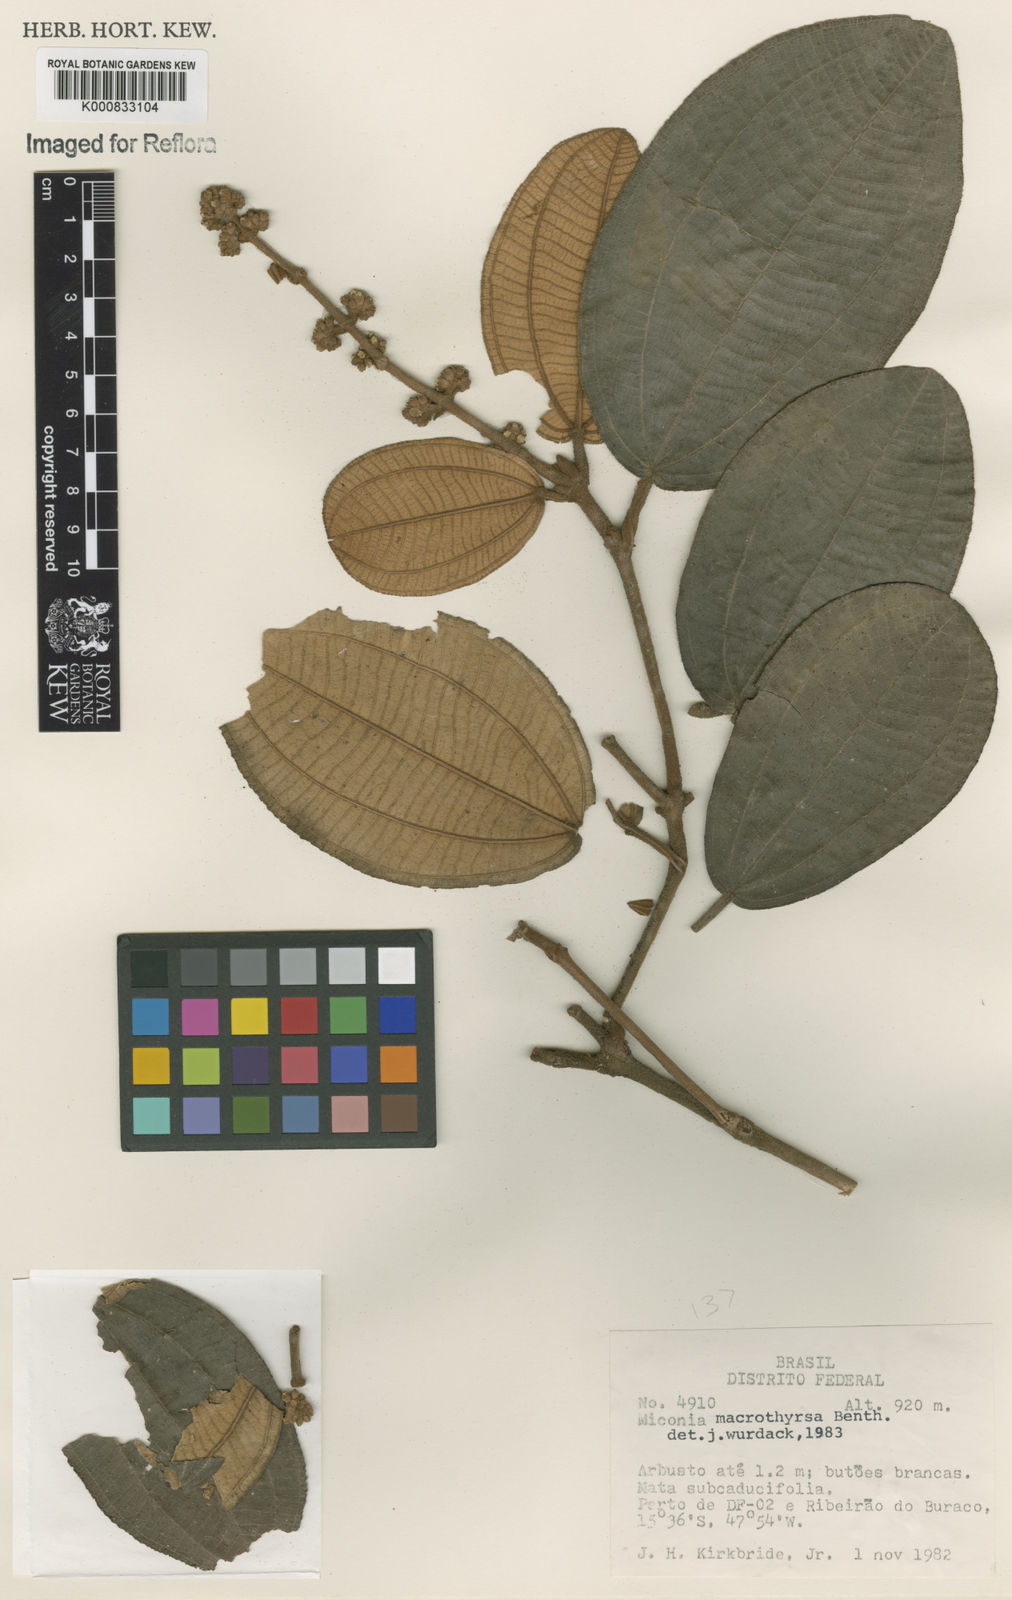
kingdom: Plantae
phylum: Tracheophyta
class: Magnoliopsida
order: Myrtales
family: Melastomataceae
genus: Miconia
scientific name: Miconia macrothyrsa
